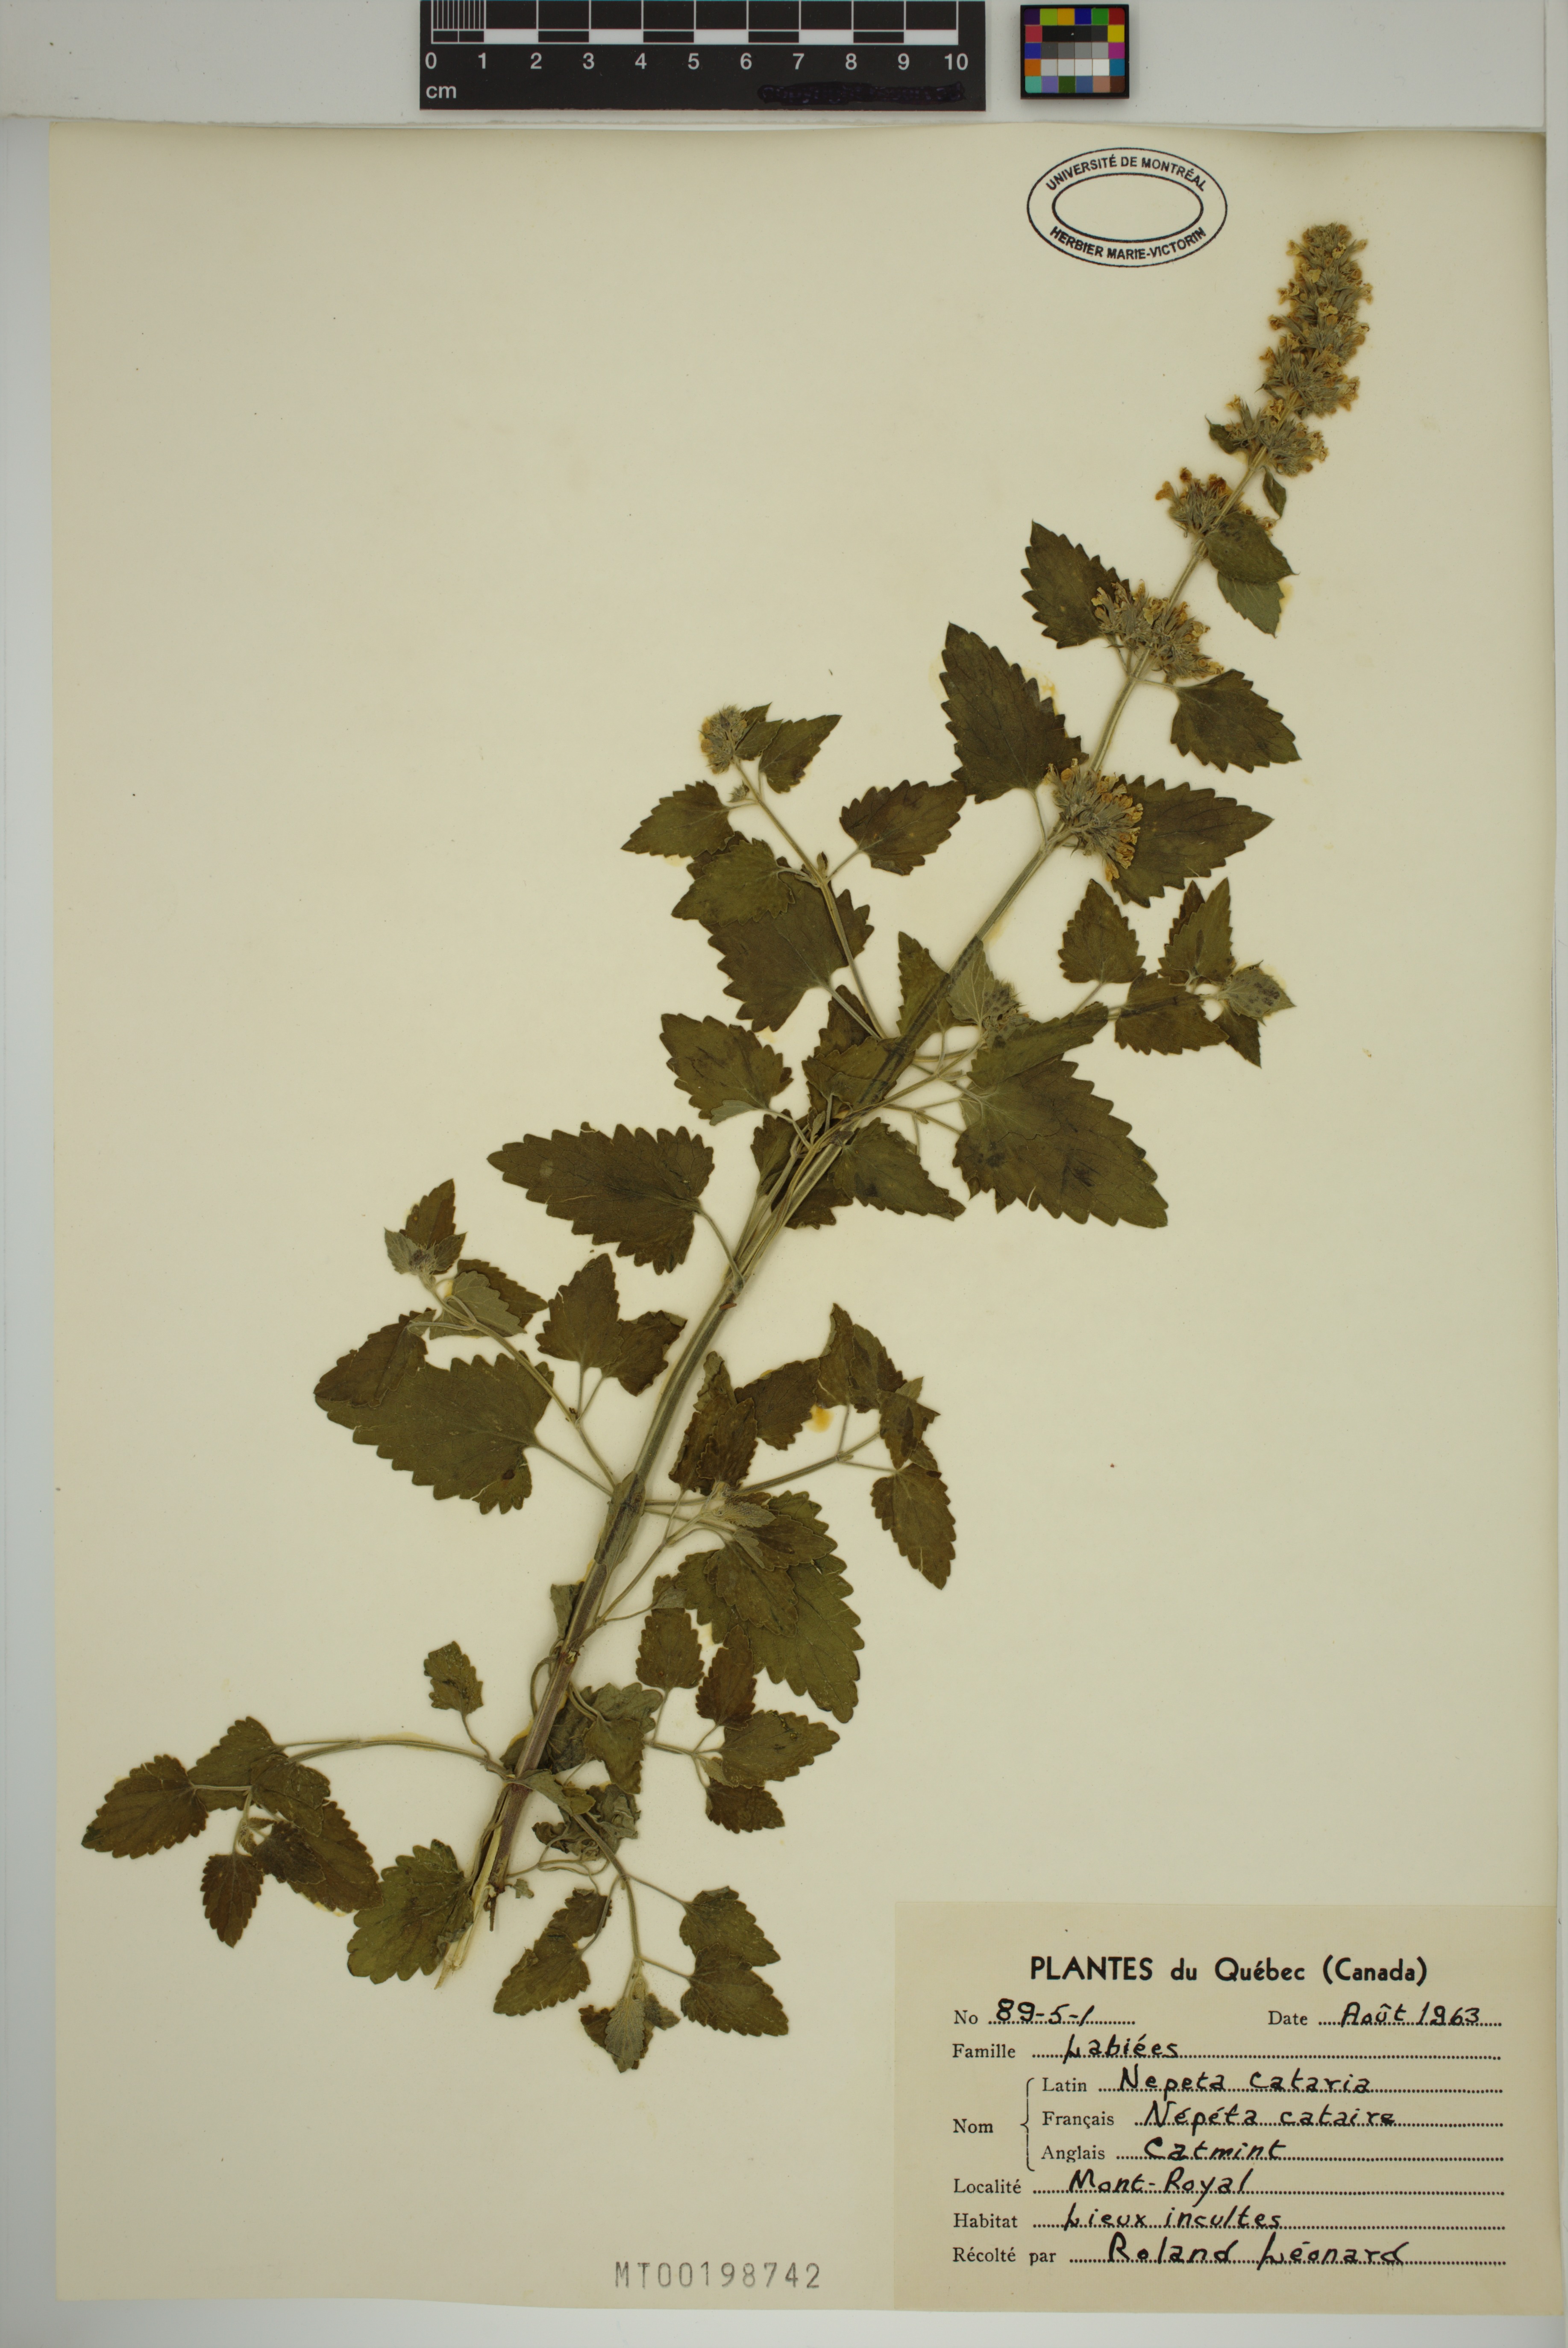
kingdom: Plantae
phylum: Tracheophyta
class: Magnoliopsida
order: Lamiales
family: Lamiaceae
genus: Nepeta
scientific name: Nepeta cataria
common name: Catnip
